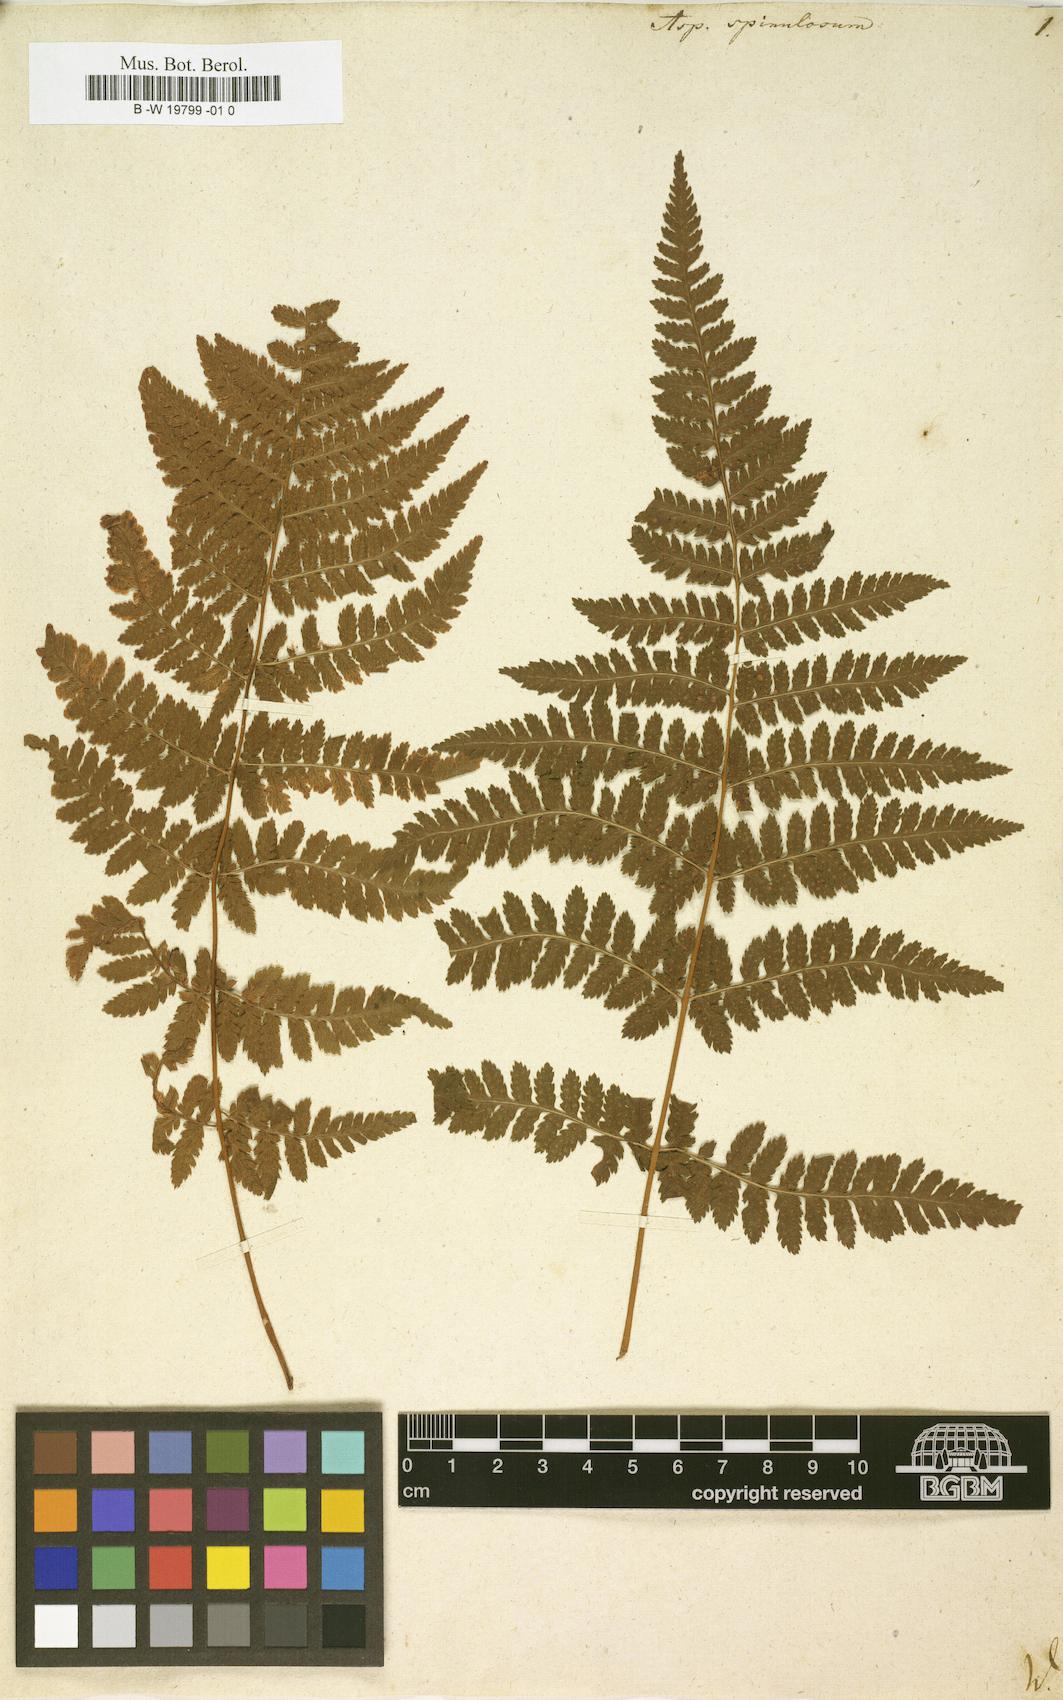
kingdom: Plantae
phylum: Tracheophyta
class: Polypodiopsida
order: Polypodiales
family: Dryopteridaceae
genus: Dryopteris
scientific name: Dryopteris
